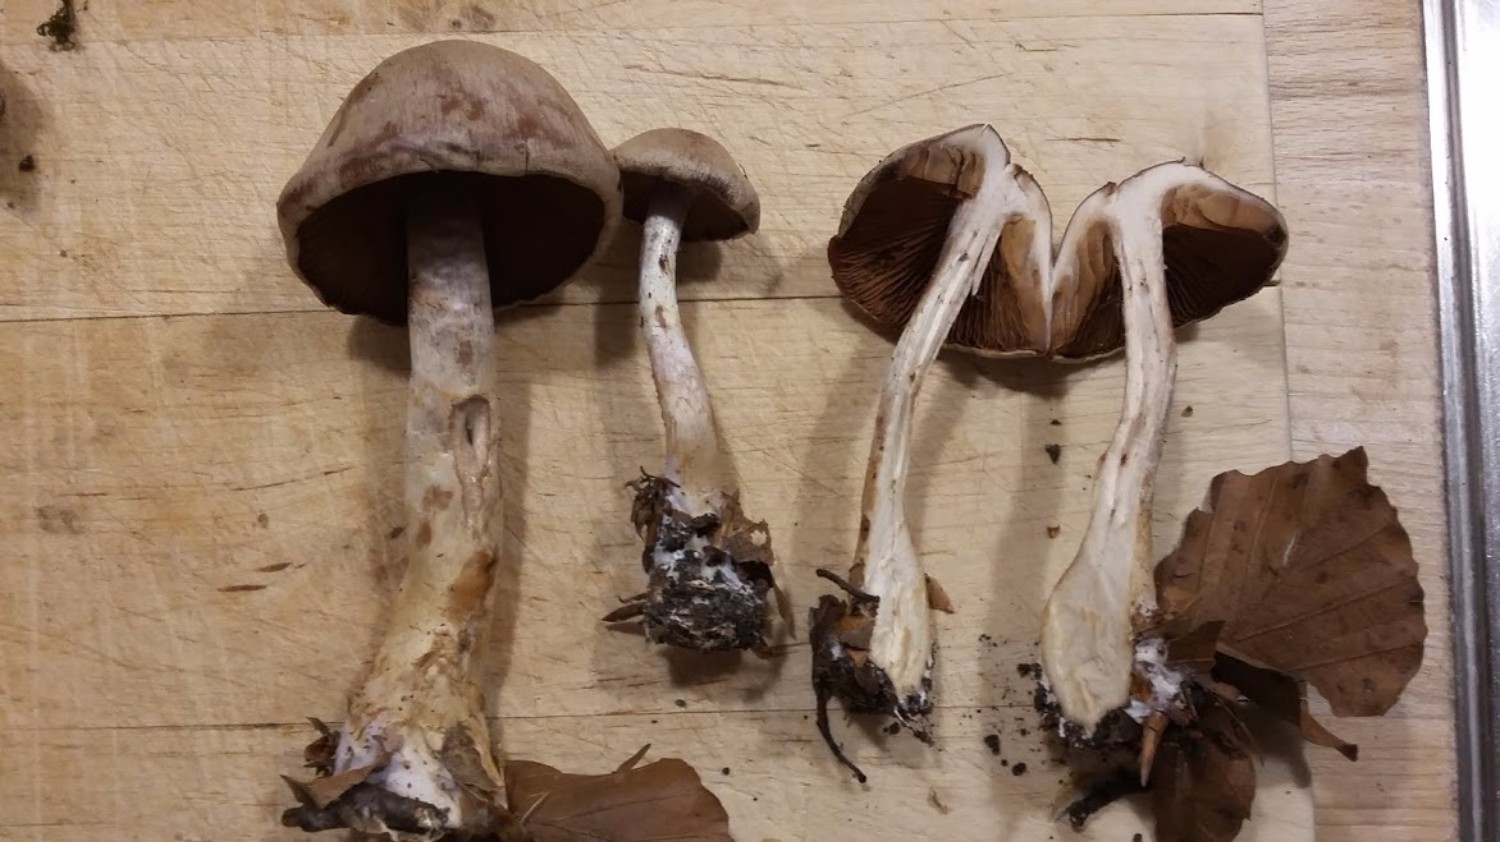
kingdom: Fungi
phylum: Basidiomycota
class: Agaricomycetes
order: Agaricales
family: Cortinariaceae
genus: Cortinarius
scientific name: Cortinarius
